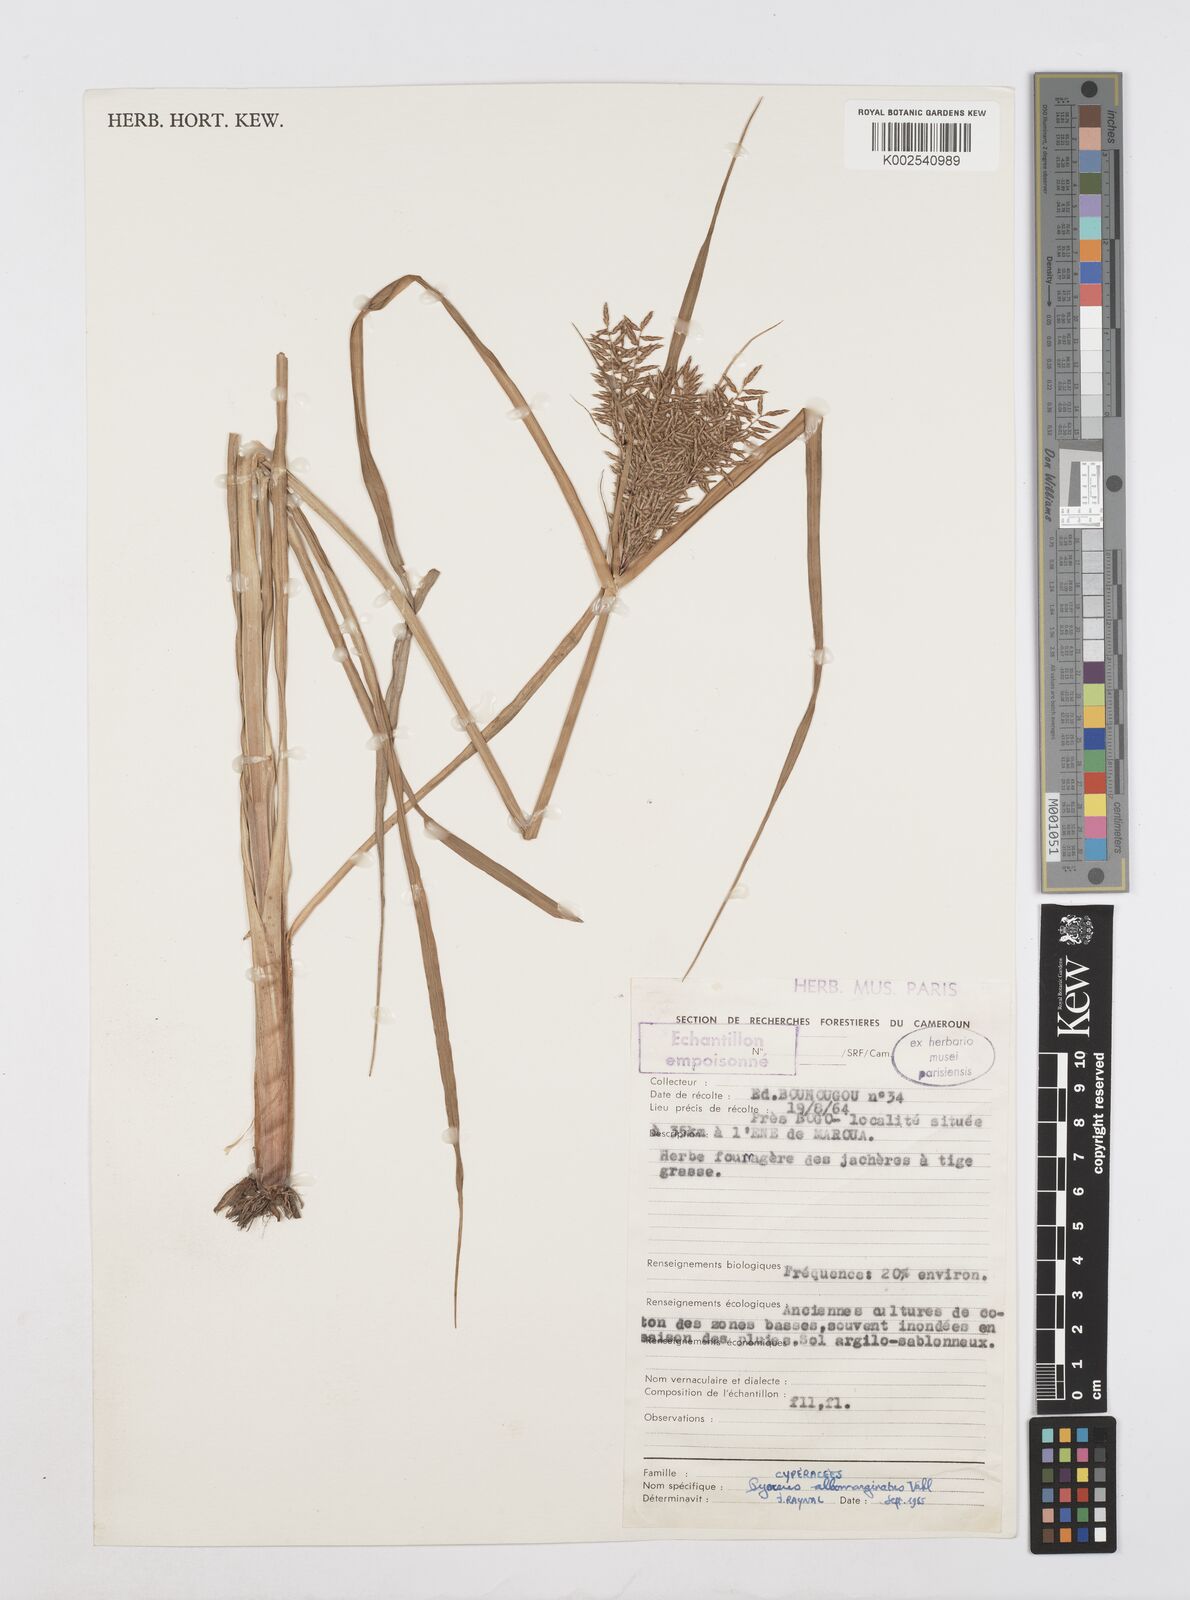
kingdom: Plantae
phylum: Tracheophyta
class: Liliopsida
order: Poales
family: Cyperaceae
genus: Cyperus
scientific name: Cyperus macrostachyos
